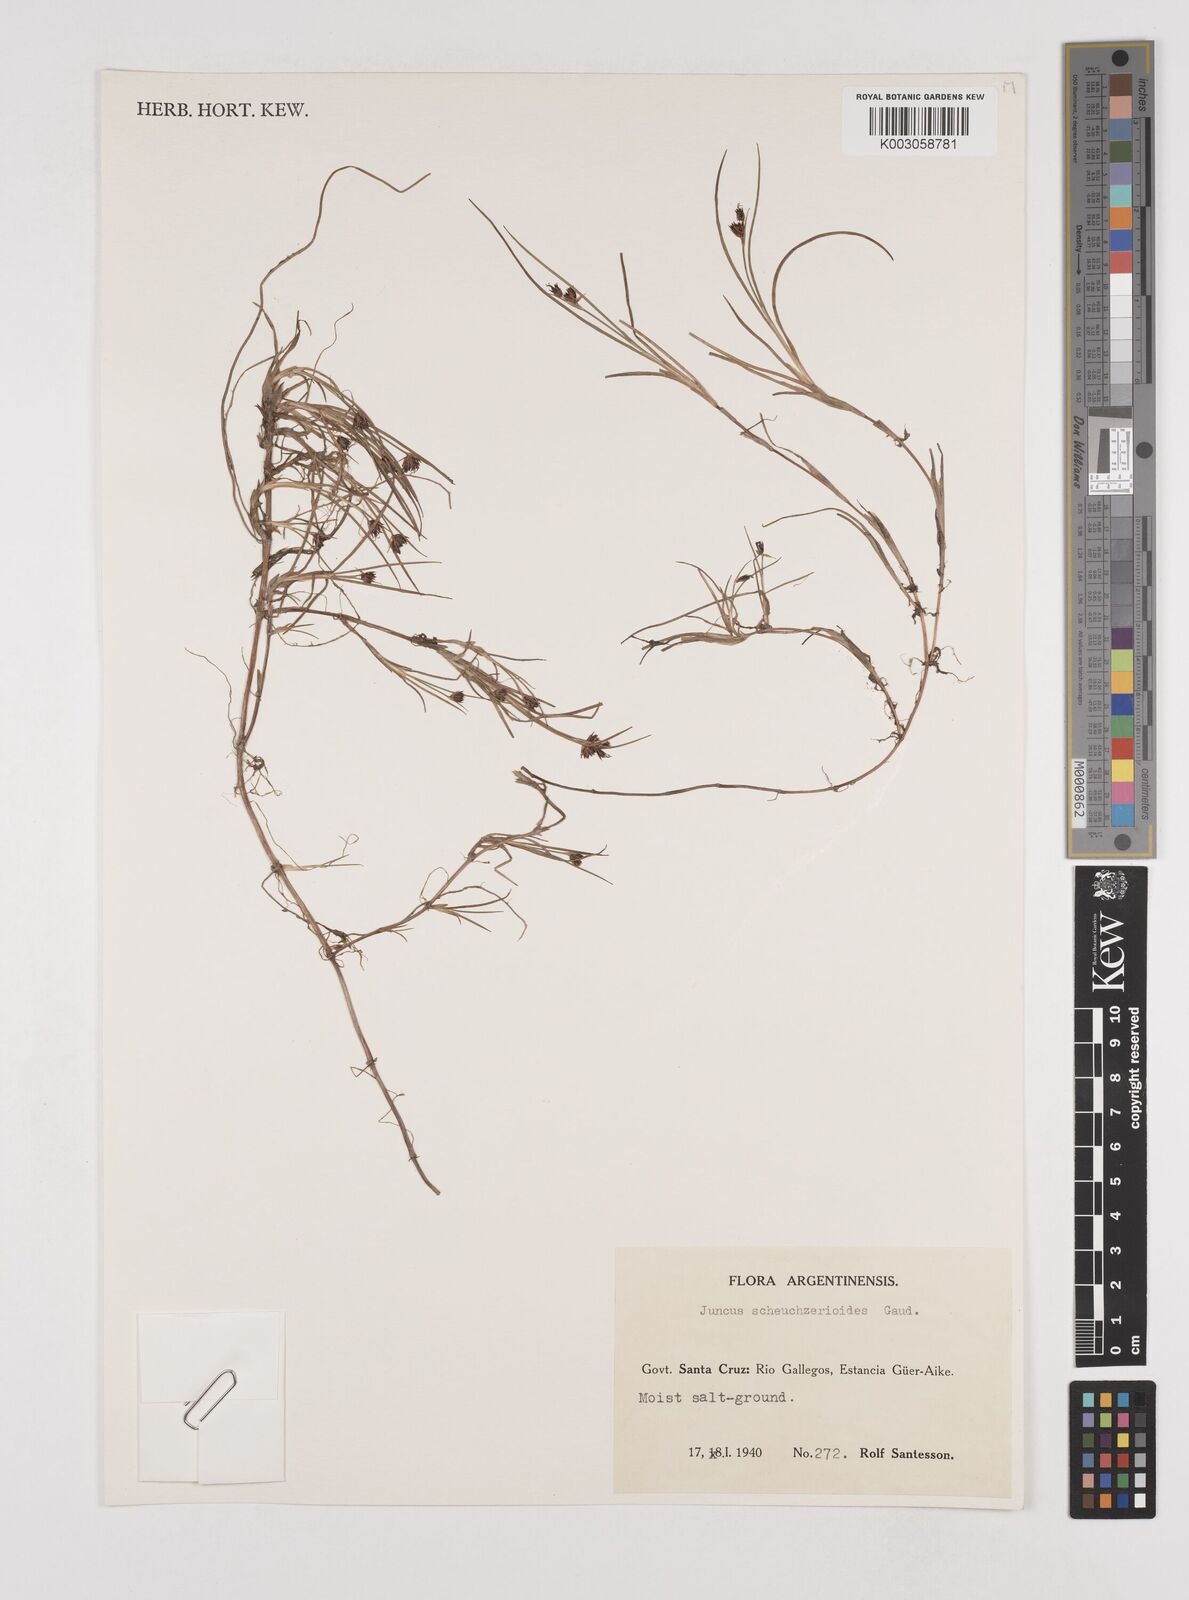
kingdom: Plantae
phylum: Tracheophyta
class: Liliopsida
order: Poales
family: Juncaceae
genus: Juncus
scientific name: Juncus scheuchzerioides
